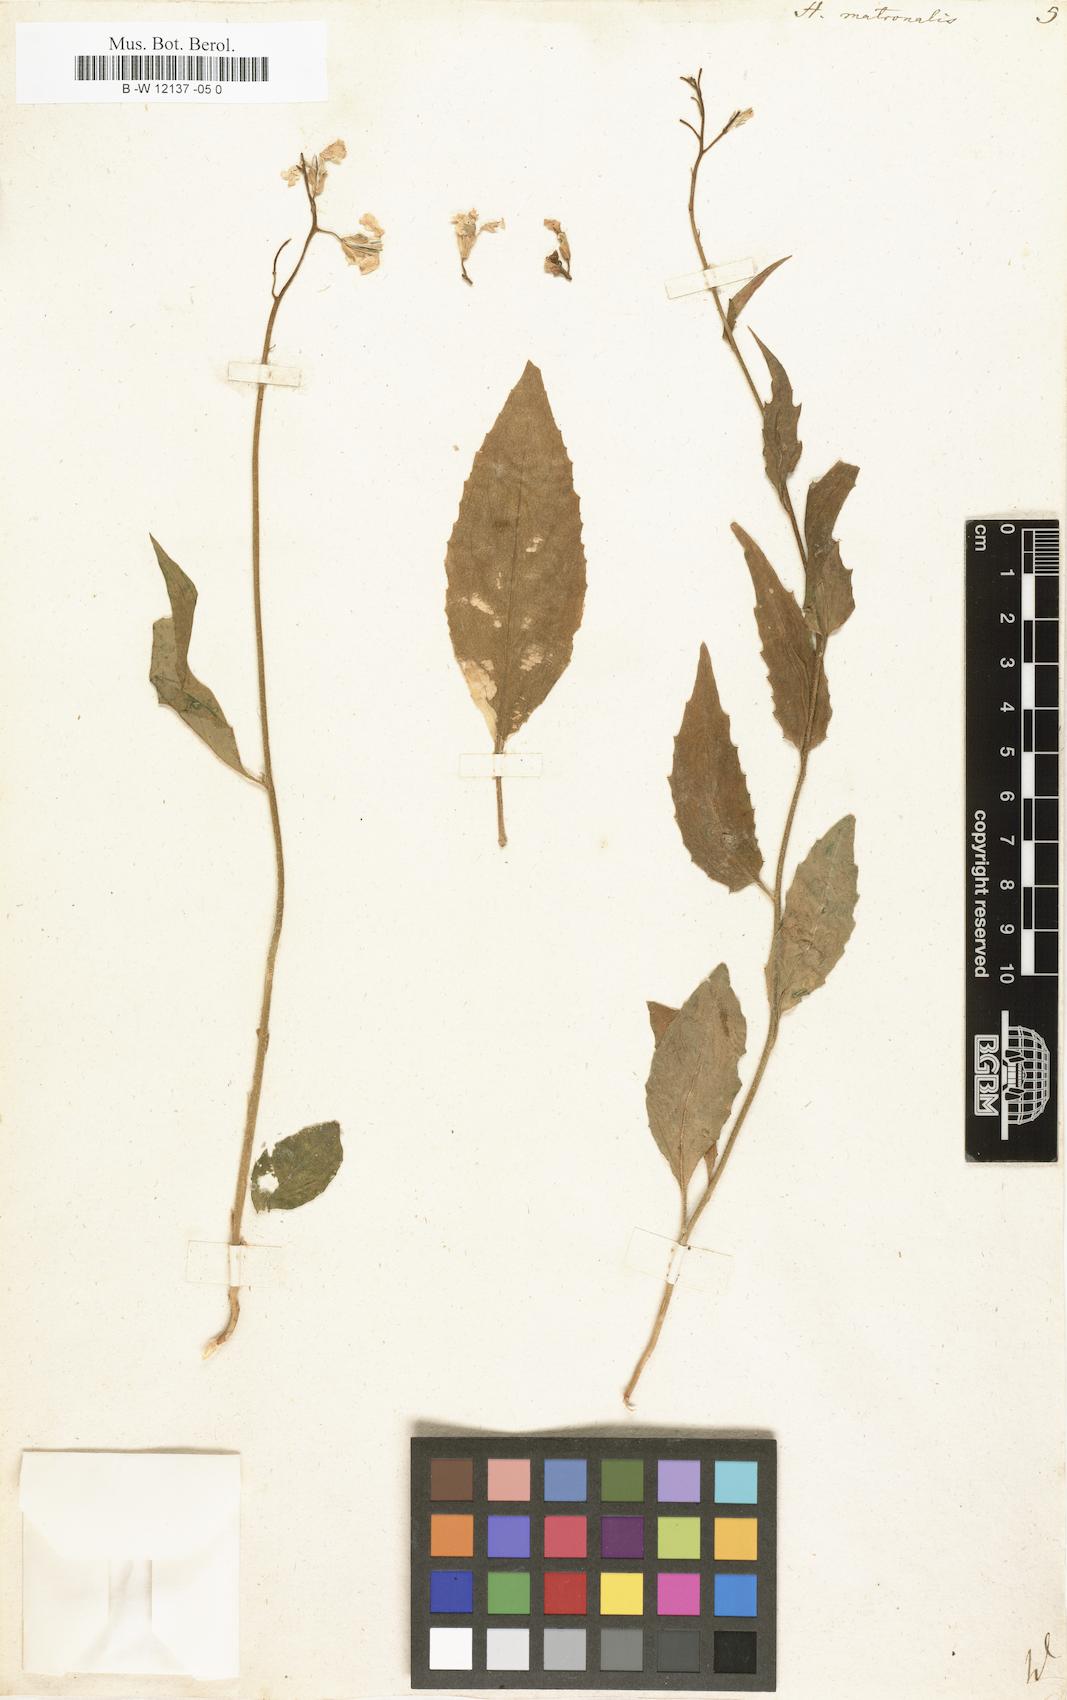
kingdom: Plantae
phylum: Tracheophyta
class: Magnoliopsida
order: Brassicales
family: Brassicaceae
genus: Hesperis
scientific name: Hesperis matronalis
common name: Dame's-violet
